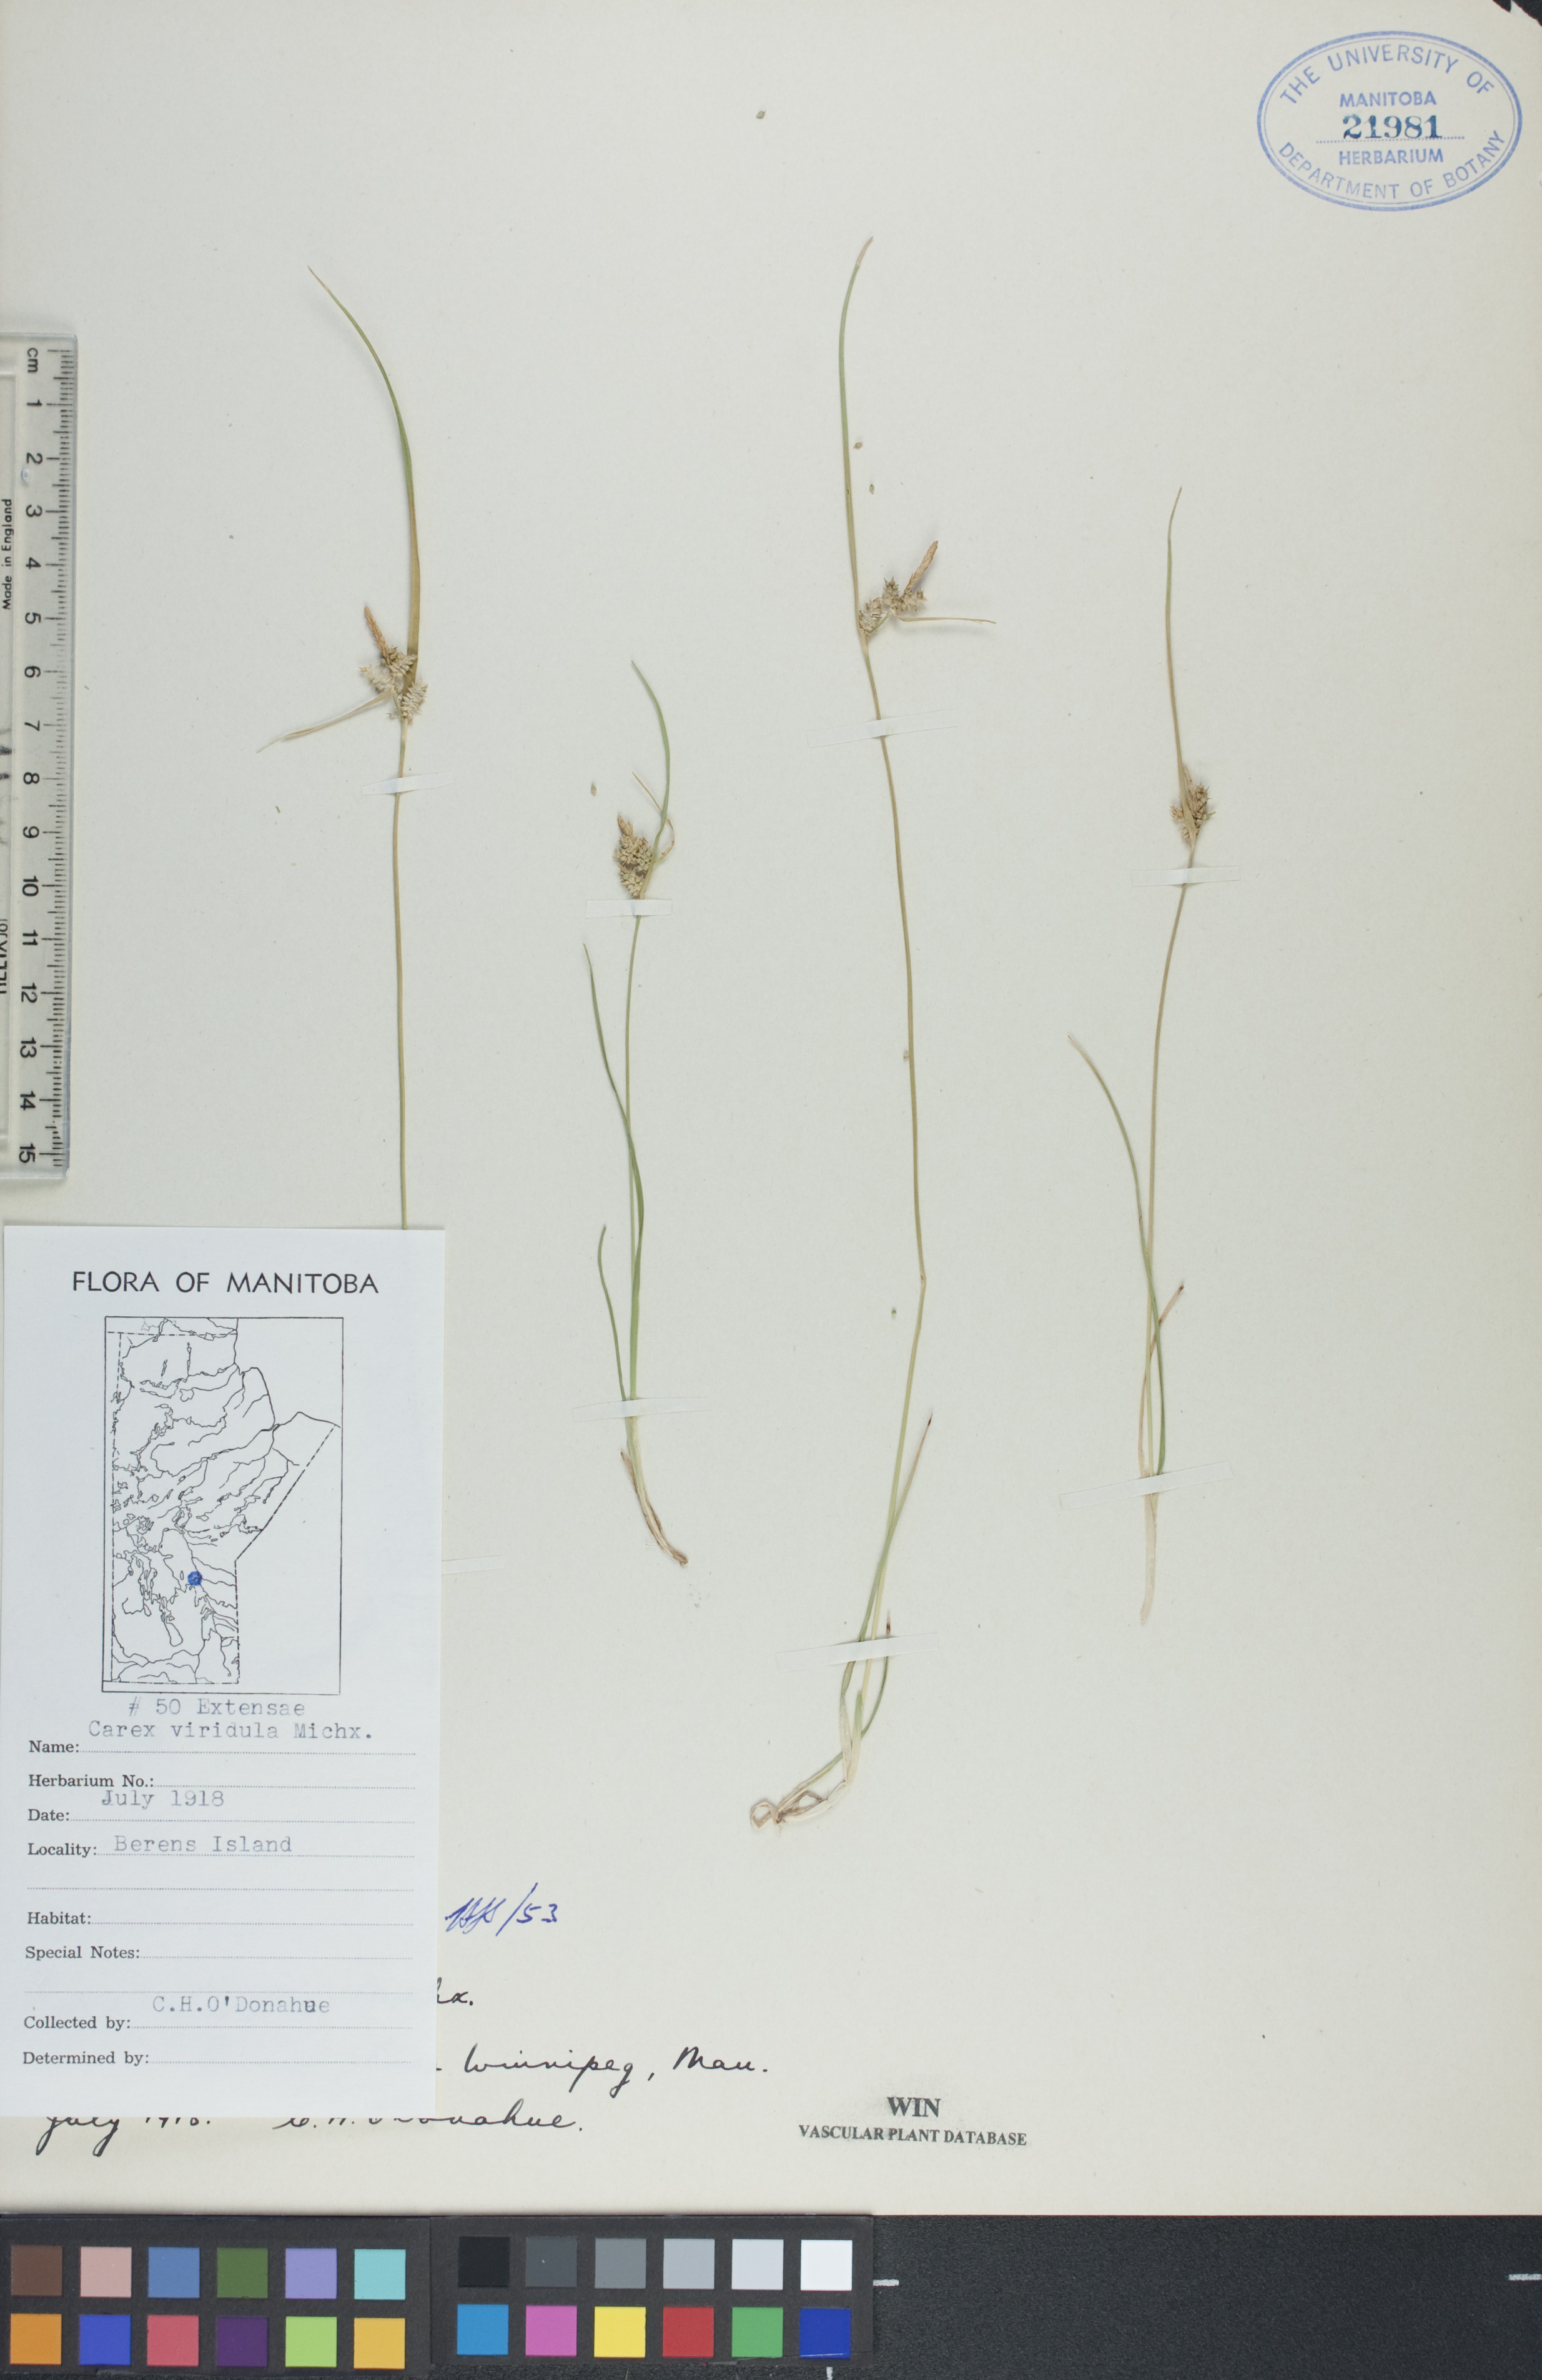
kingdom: Plantae
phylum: Tracheophyta
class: Liliopsida
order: Poales
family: Cyperaceae
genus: Carex
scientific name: Carex oederi
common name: Common & small-fruited yellow-sedge
